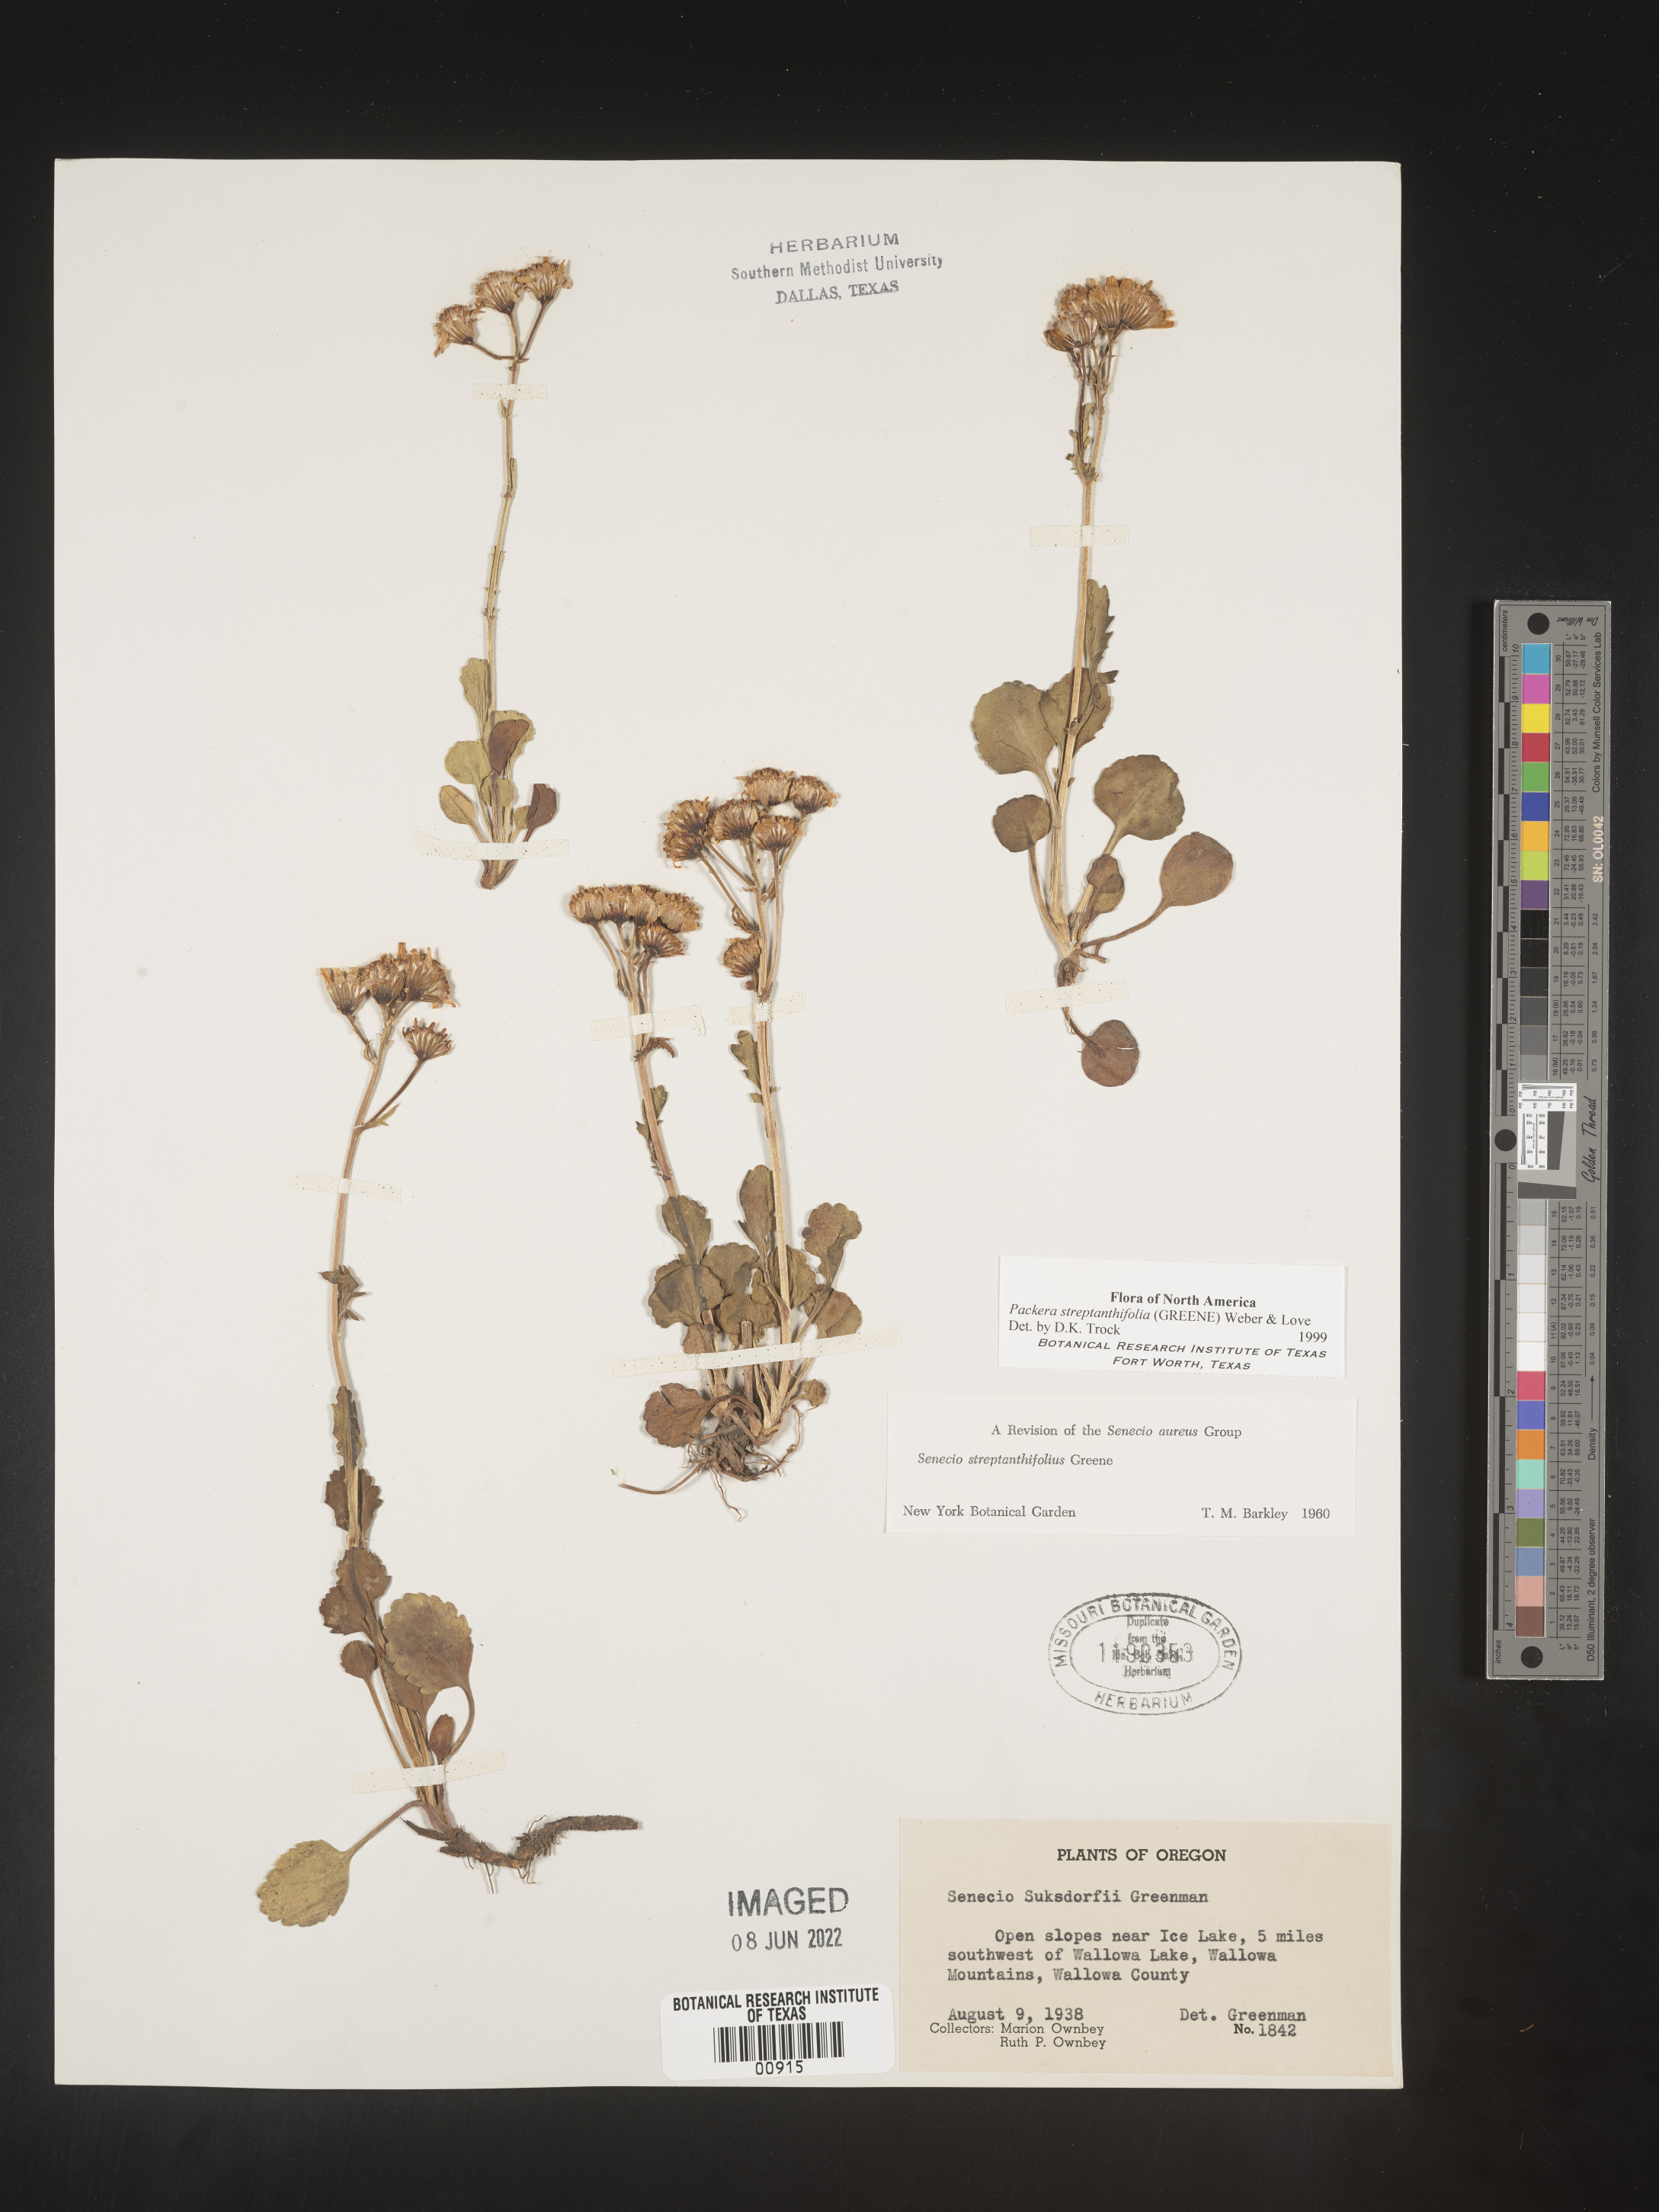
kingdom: Plantae
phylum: Tracheophyta
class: Magnoliopsida
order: Asterales
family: Asteraceae
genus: Packera
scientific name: Packera streptanthifolia
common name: Rocky mountain butterweed
